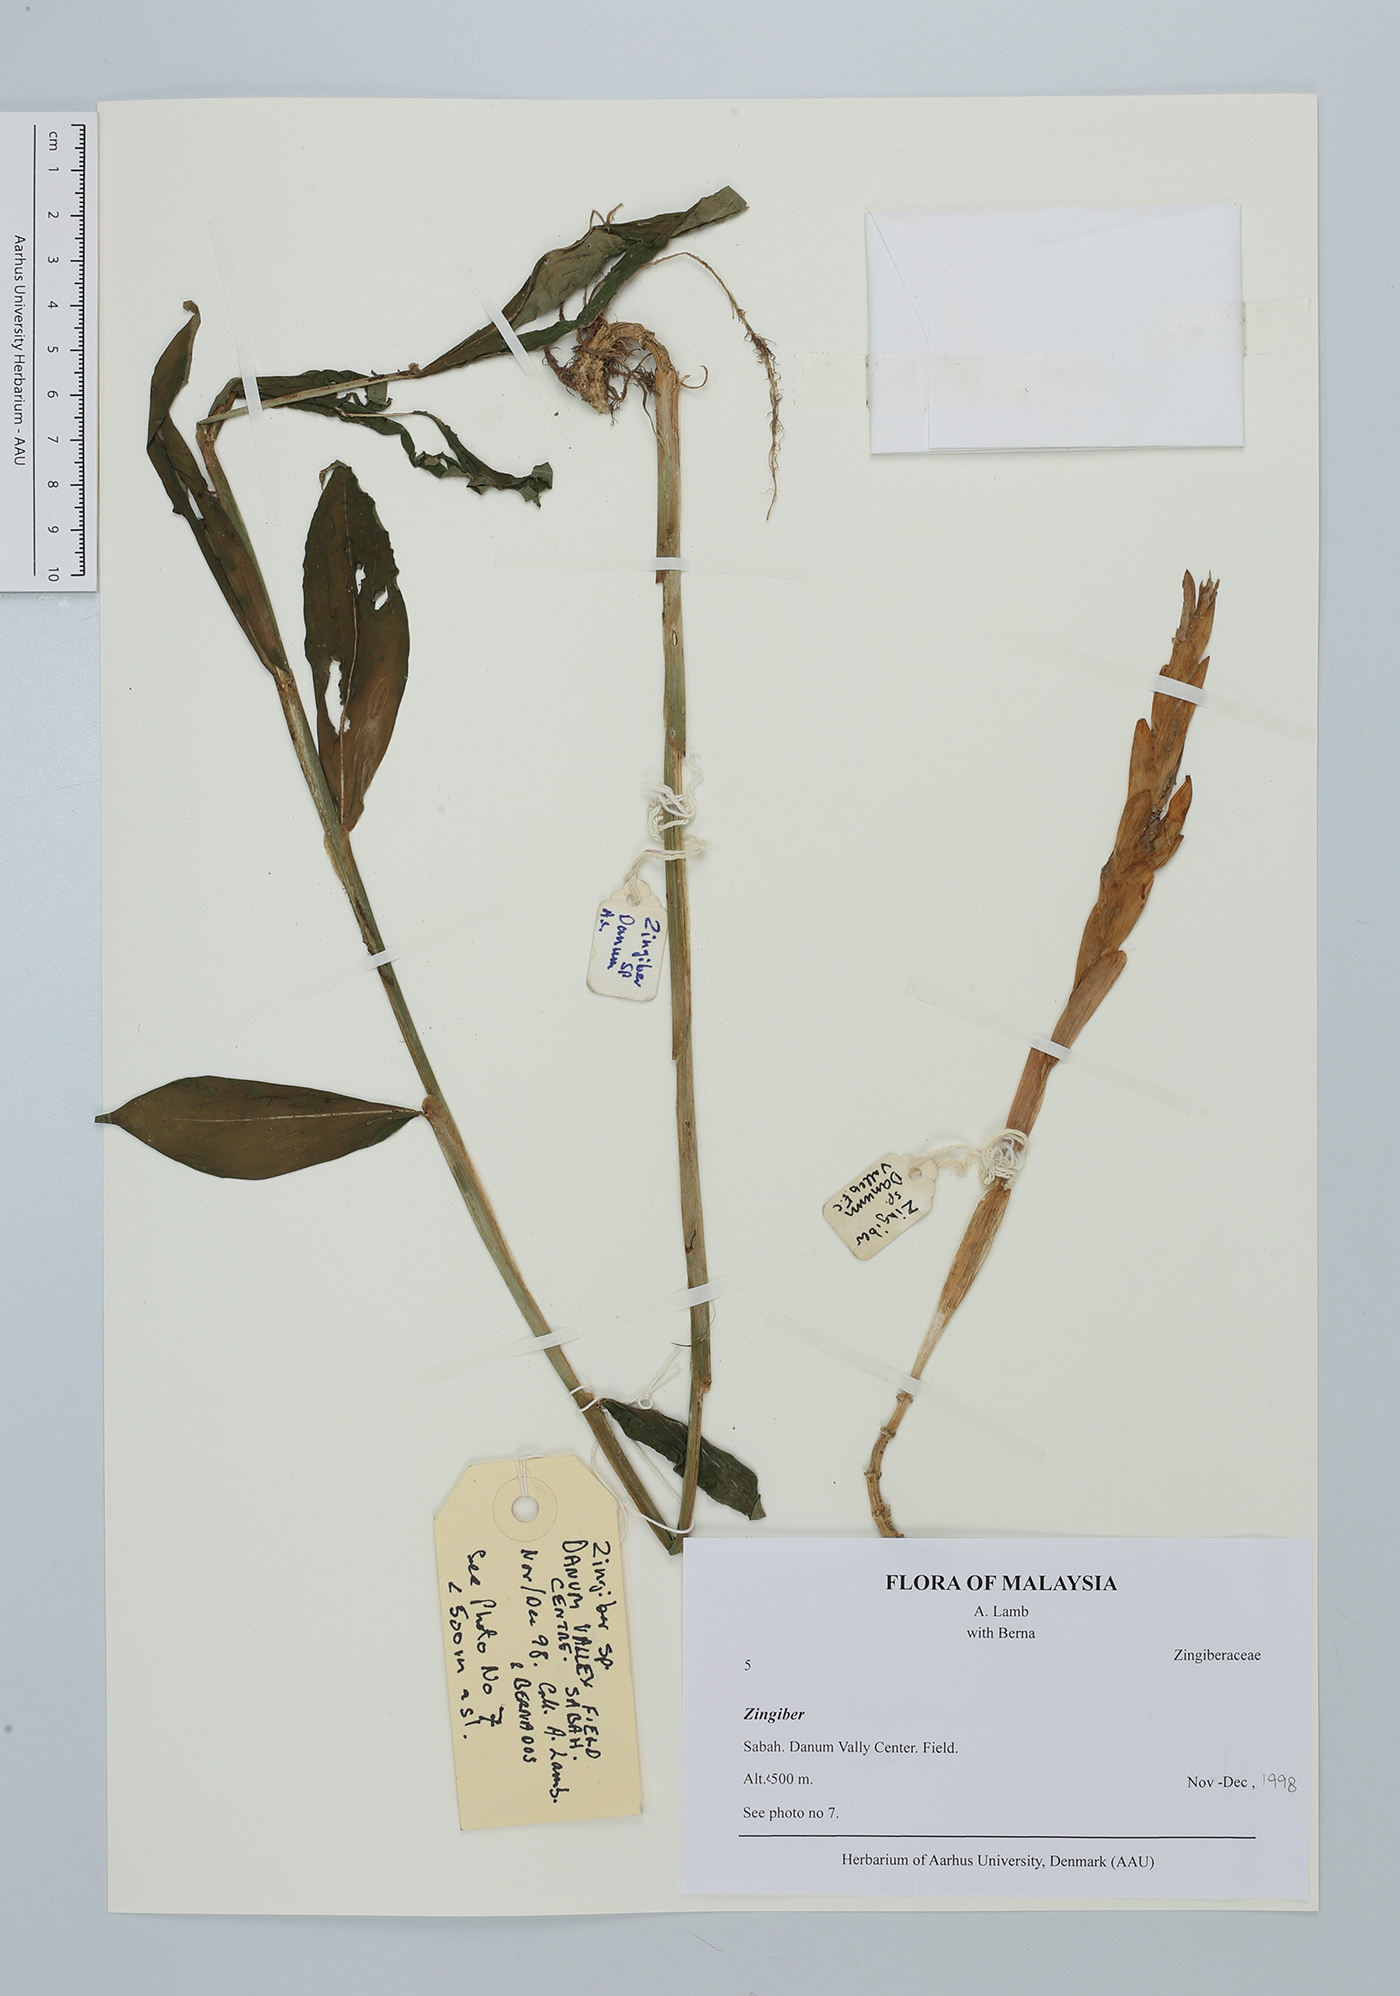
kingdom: Plantae
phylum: Tracheophyta
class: Liliopsida
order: Zingiberales
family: Zingiberaceae
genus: Zingiber
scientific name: Zingiber
